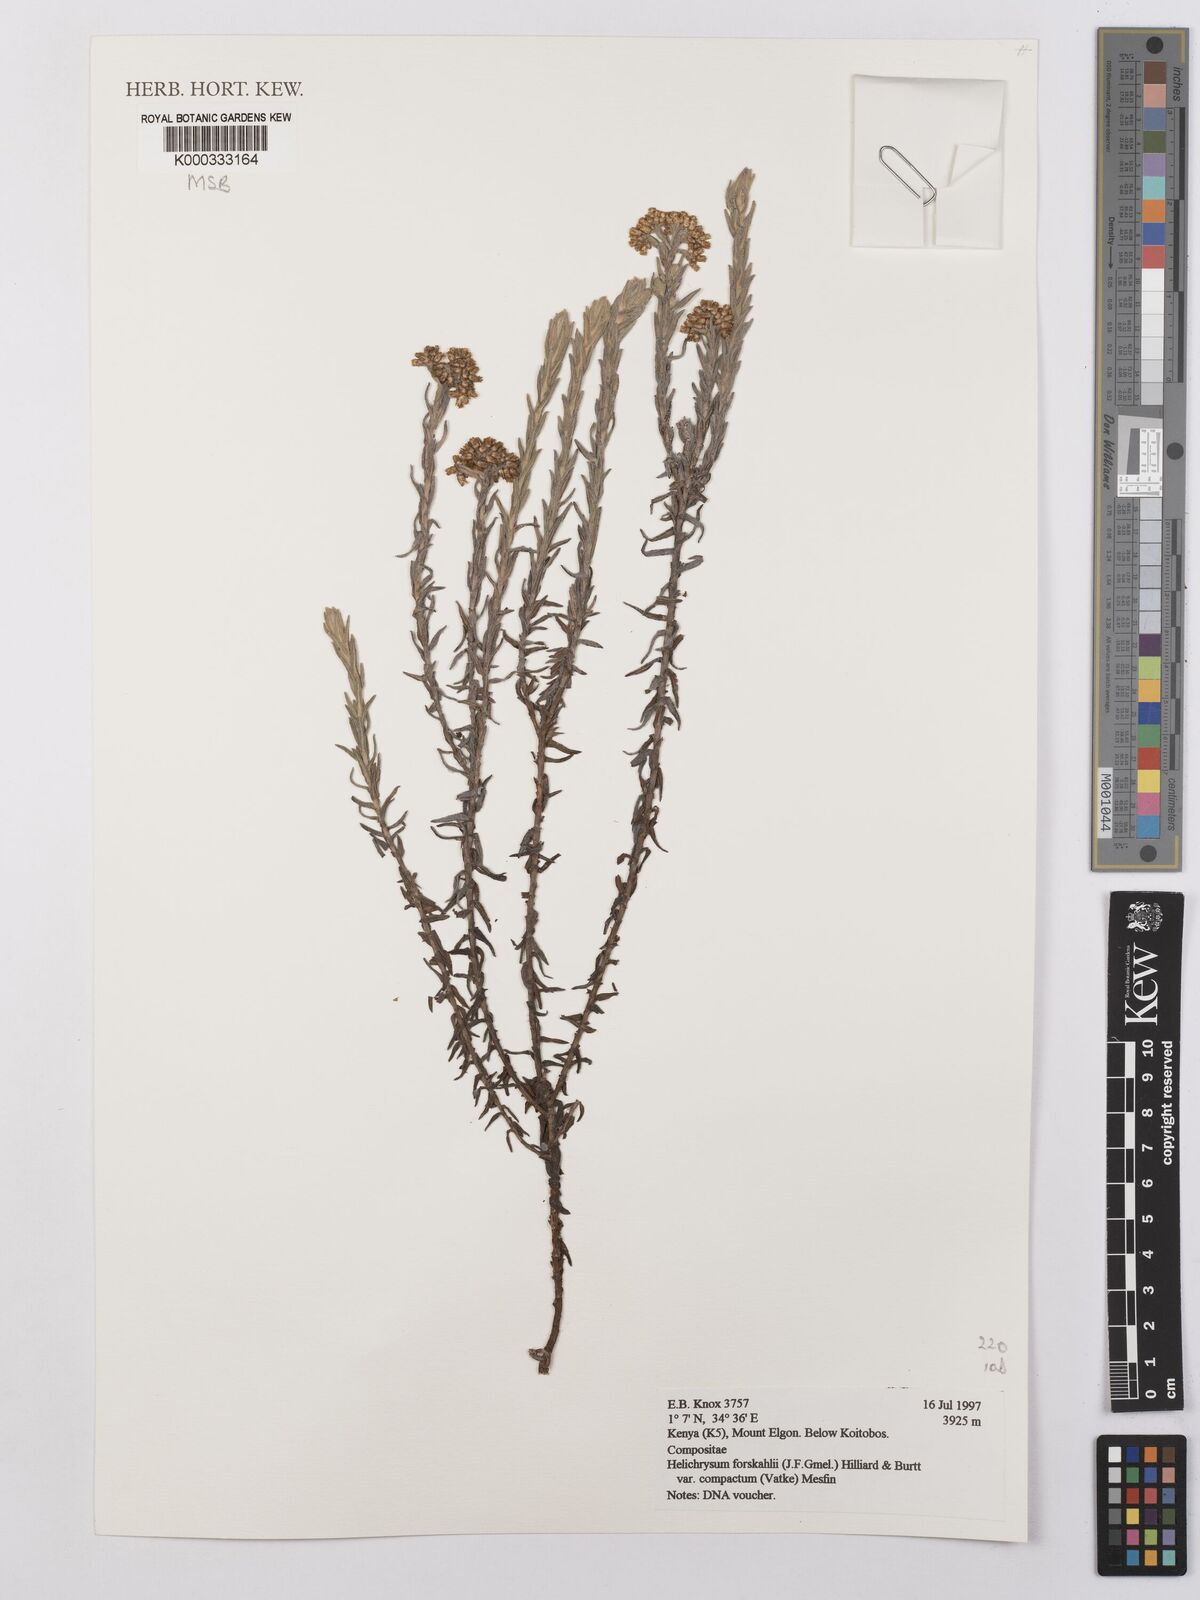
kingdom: Plantae
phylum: Tracheophyta
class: Magnoliopsida
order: Asterales
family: Asteraceae
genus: Helichrysum
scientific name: Helichrysum forskahlii
